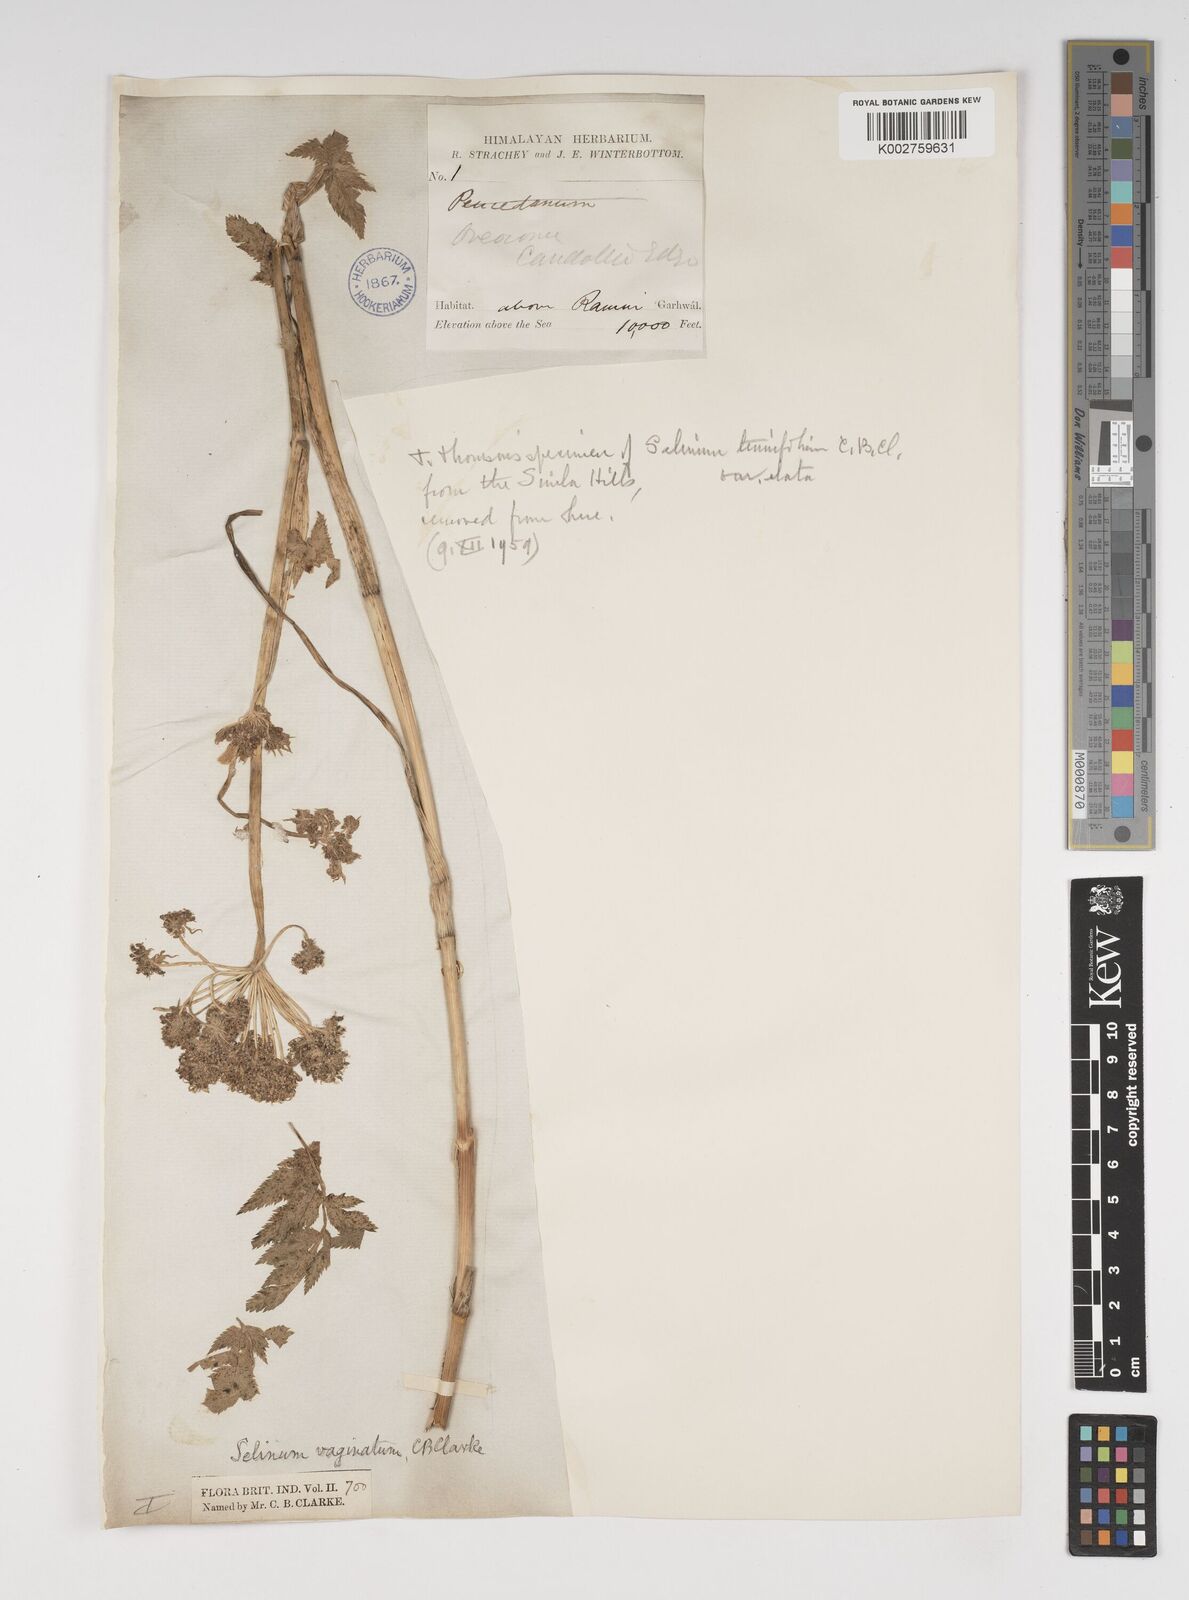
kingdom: Plantae
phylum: Tracheophyta
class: Magnoliopsida
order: Apiales
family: Apiaceae
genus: Selinum
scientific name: Selinum vaginatum
